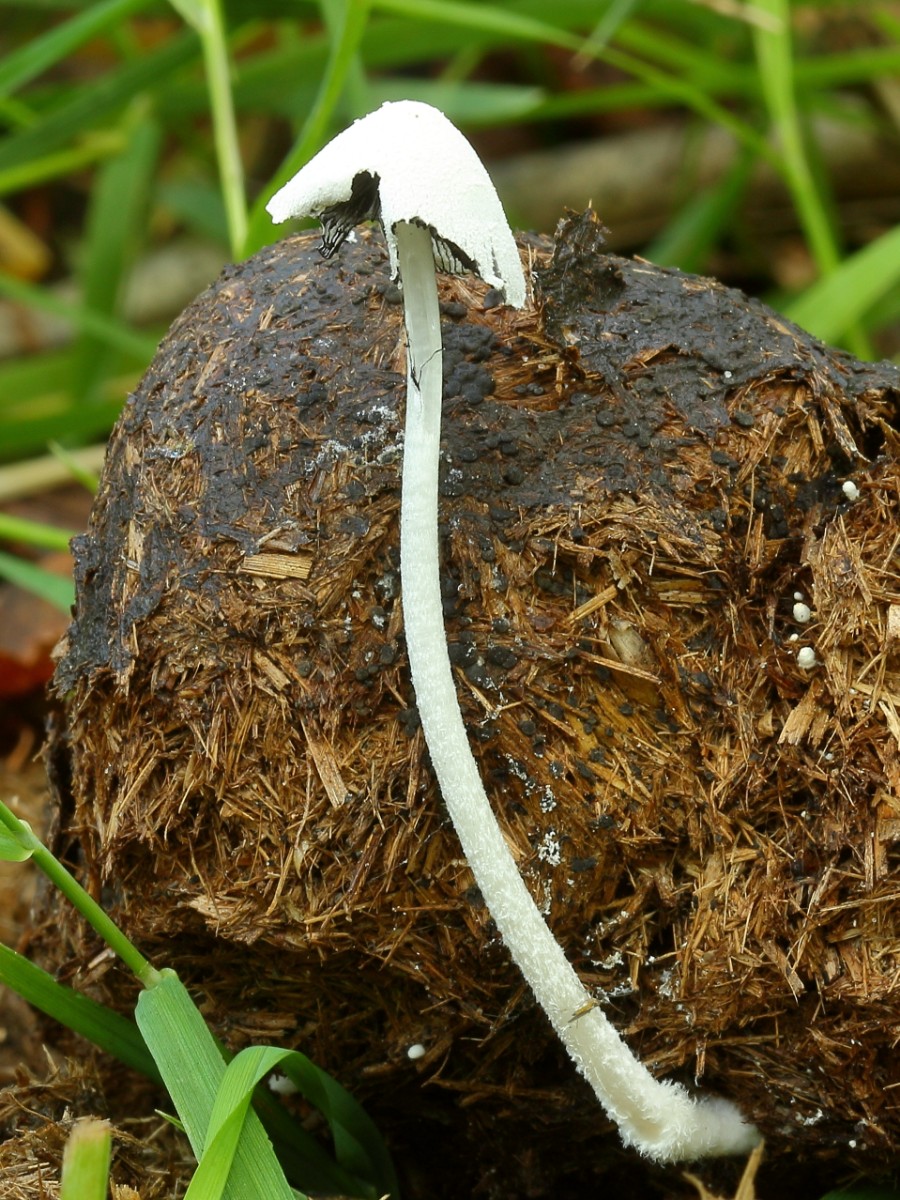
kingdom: Fungi
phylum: Basidiomycota
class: Agaricomycetes
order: Agaricales
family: Psathyrellaceae
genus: Coprinopsis
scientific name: Coprinopsis nivea
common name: snehvid blækhat
